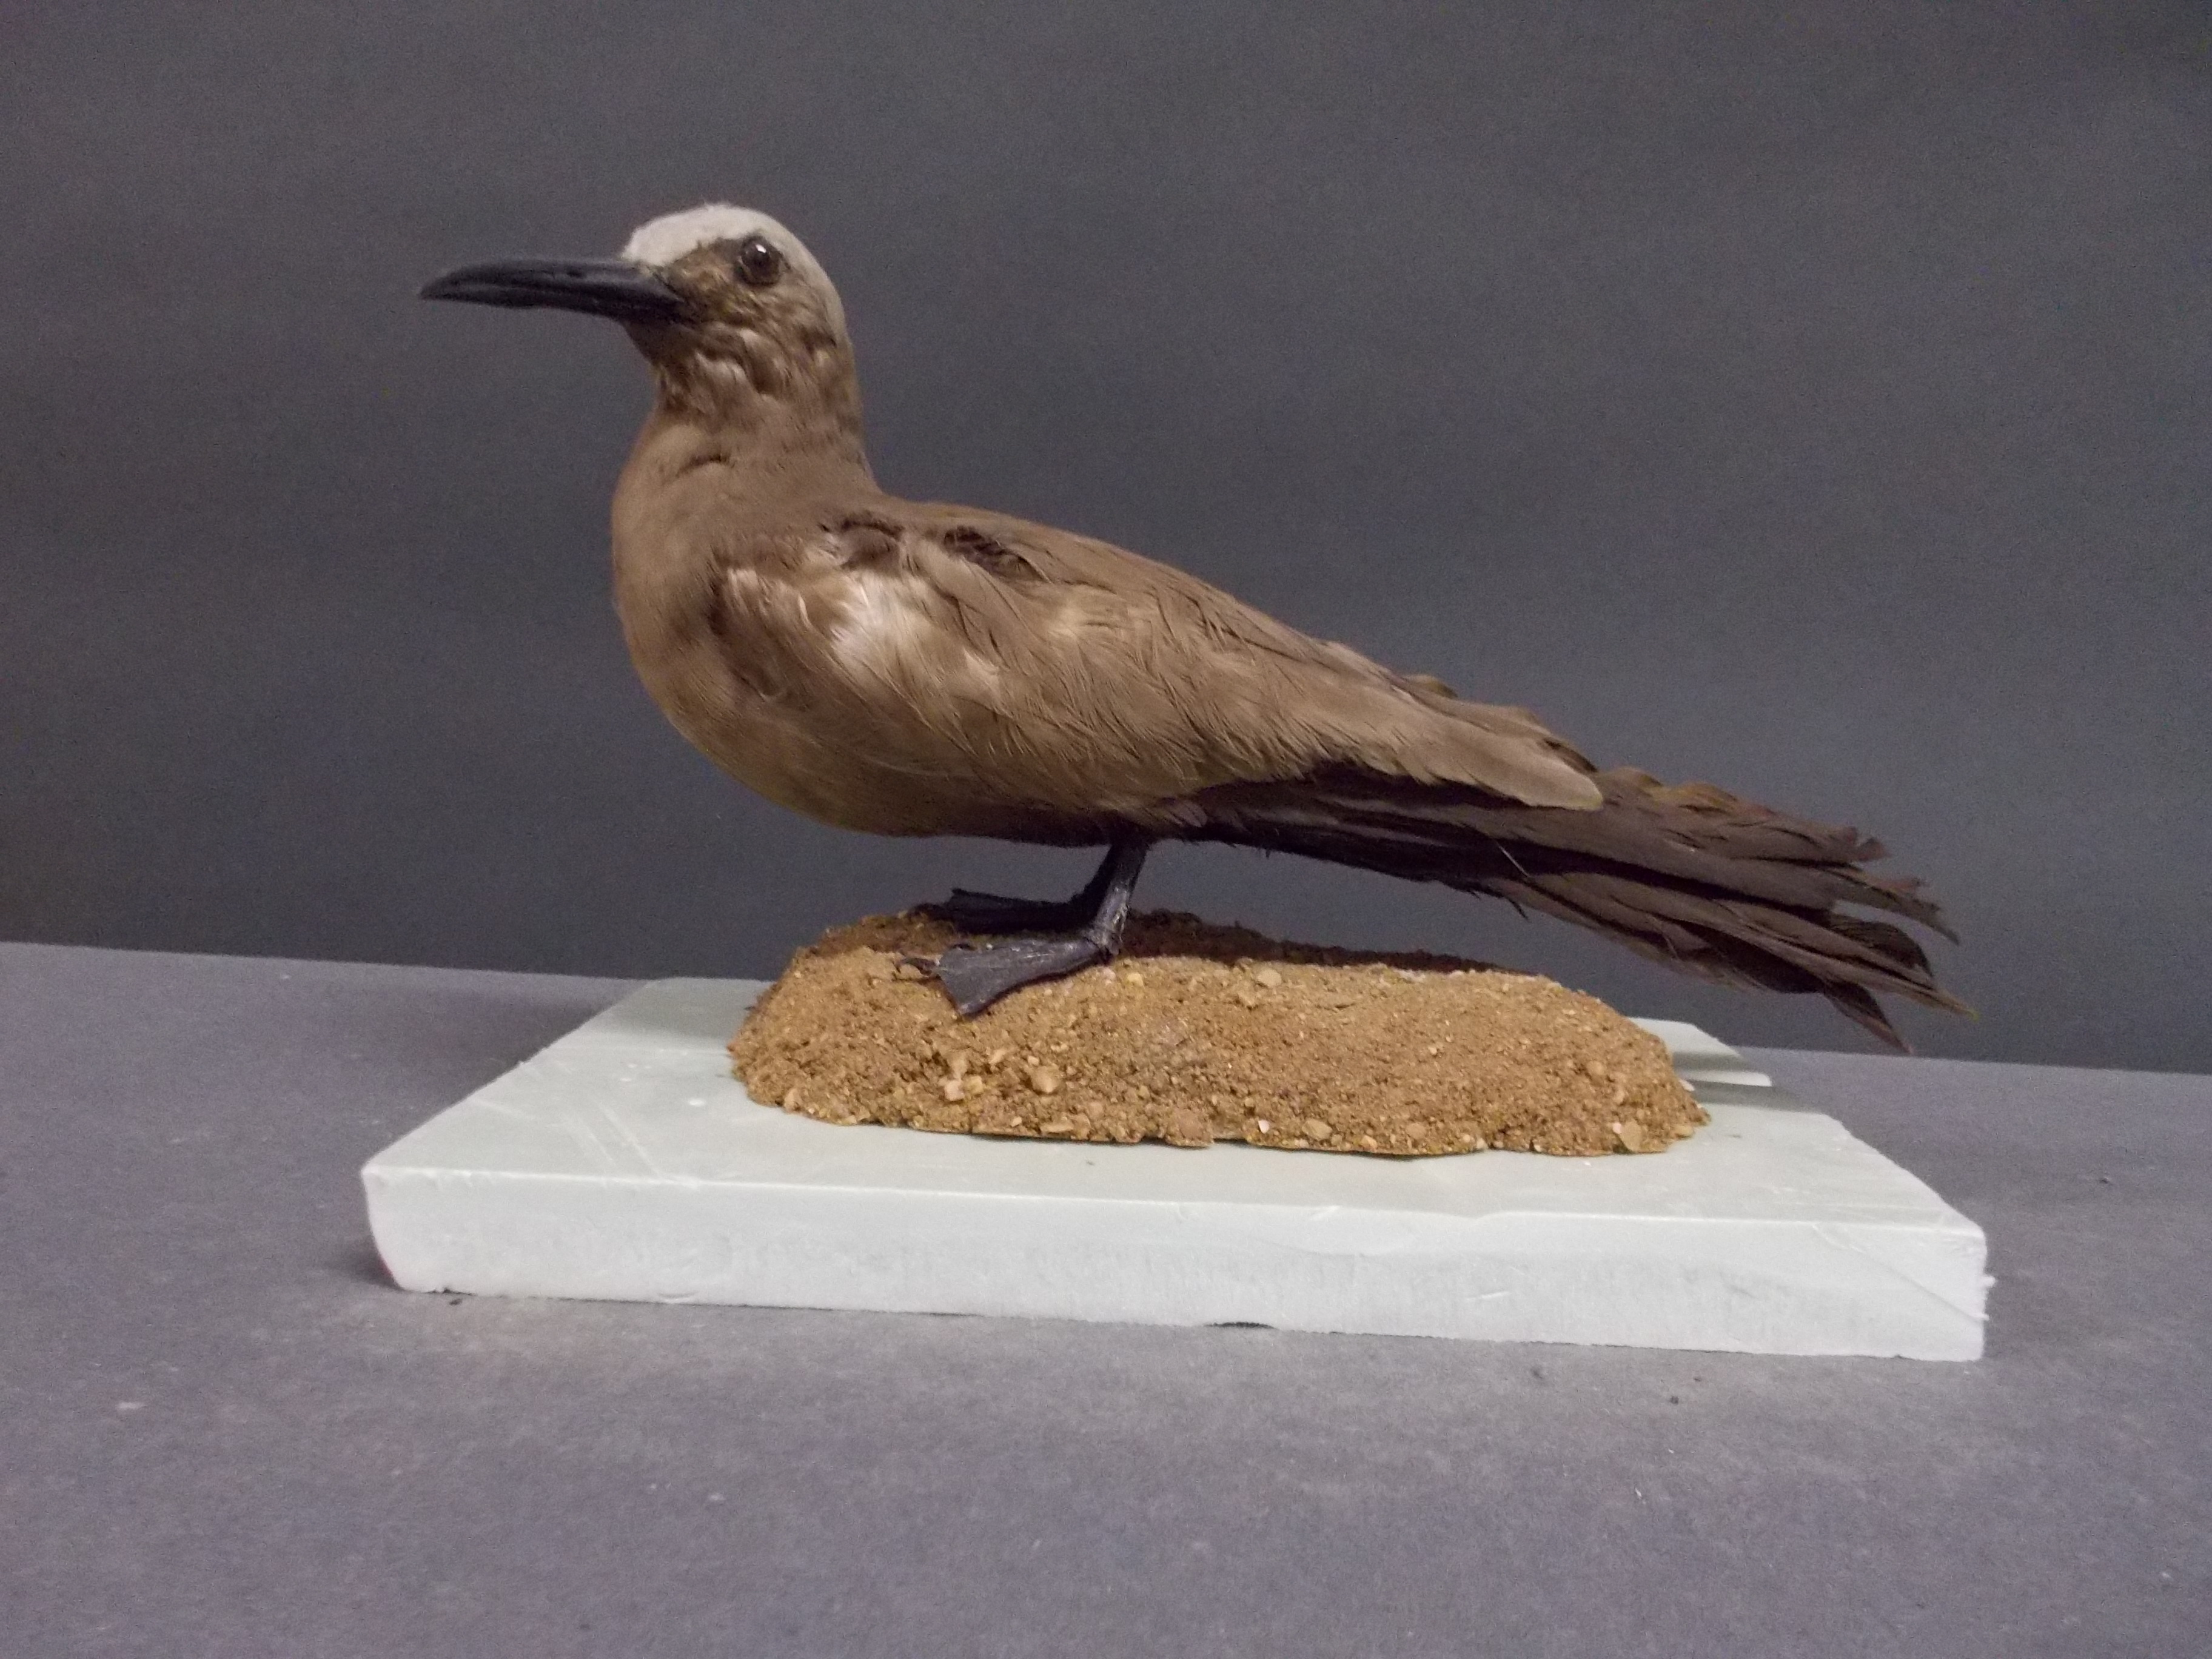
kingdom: Animalia
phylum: Chordata
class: Aves
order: Charadriiformes
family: Laridae
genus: Anous
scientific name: Anous stolidus
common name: Brown noddy
